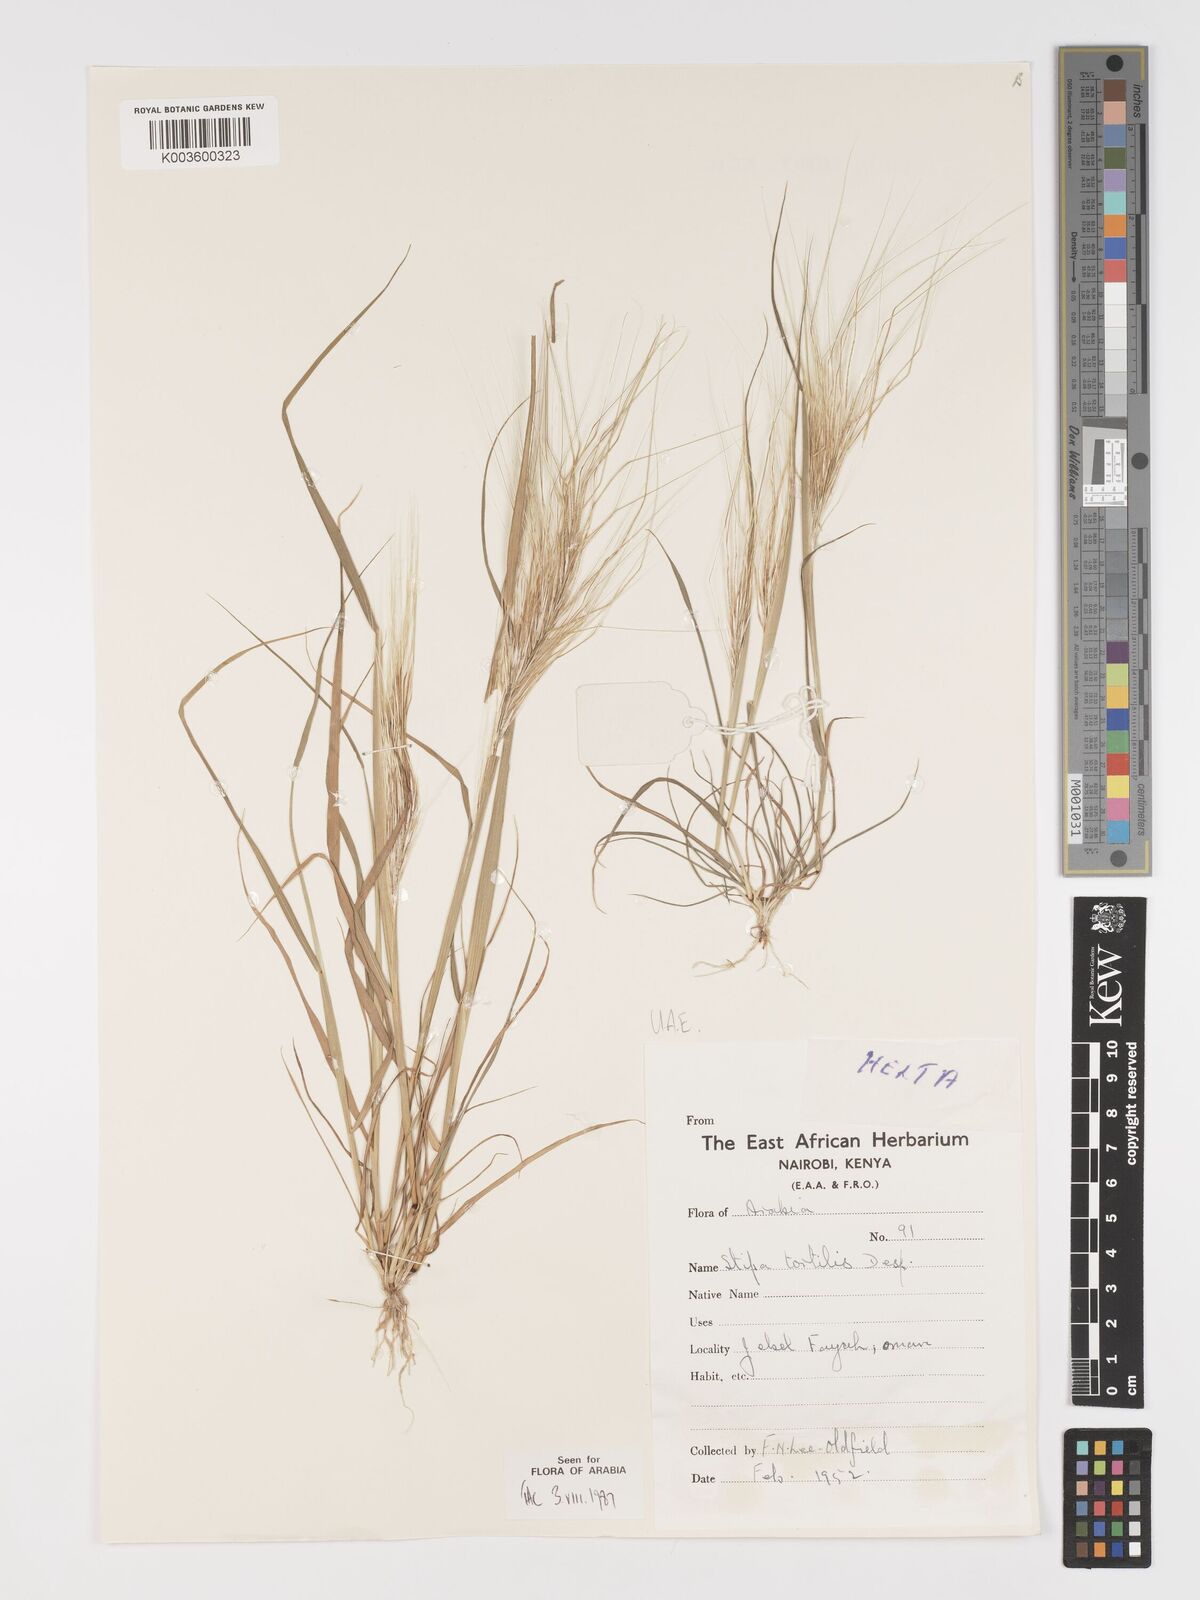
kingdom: Plantae
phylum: Tracheophyta
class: Liliopsida
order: Poales
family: Poaceae
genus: Stipellula
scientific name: Stipellula capensis
